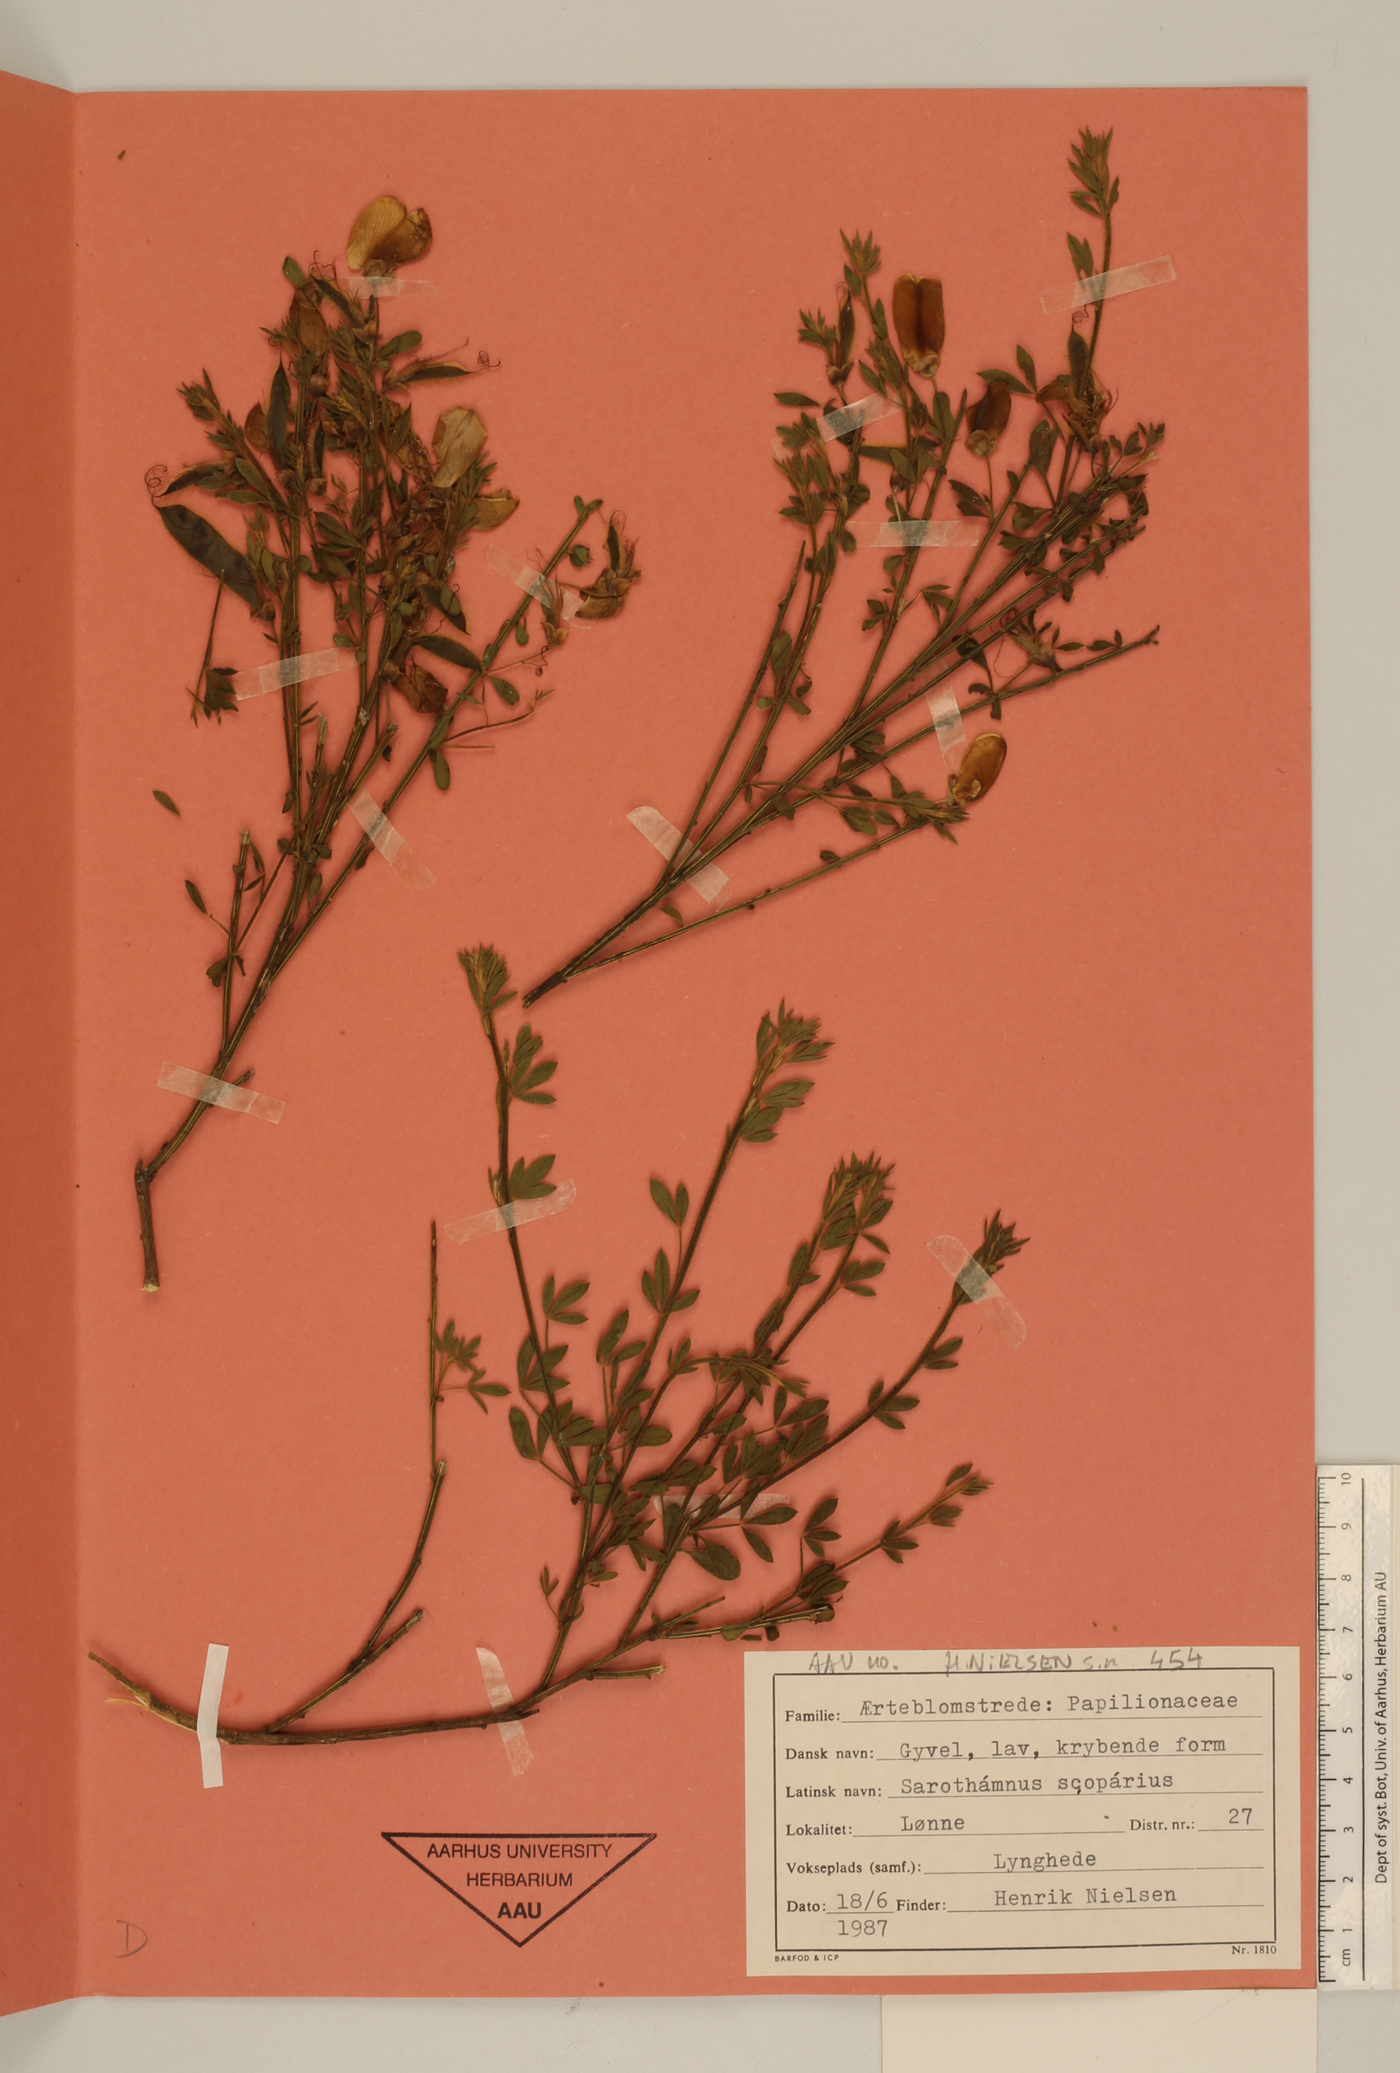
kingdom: Plantae
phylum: Tracheophyta
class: Magnoliopsida
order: Fabales
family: Fabaceae
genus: Cytisus
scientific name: Cytisus scoparius
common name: Scotch broom
